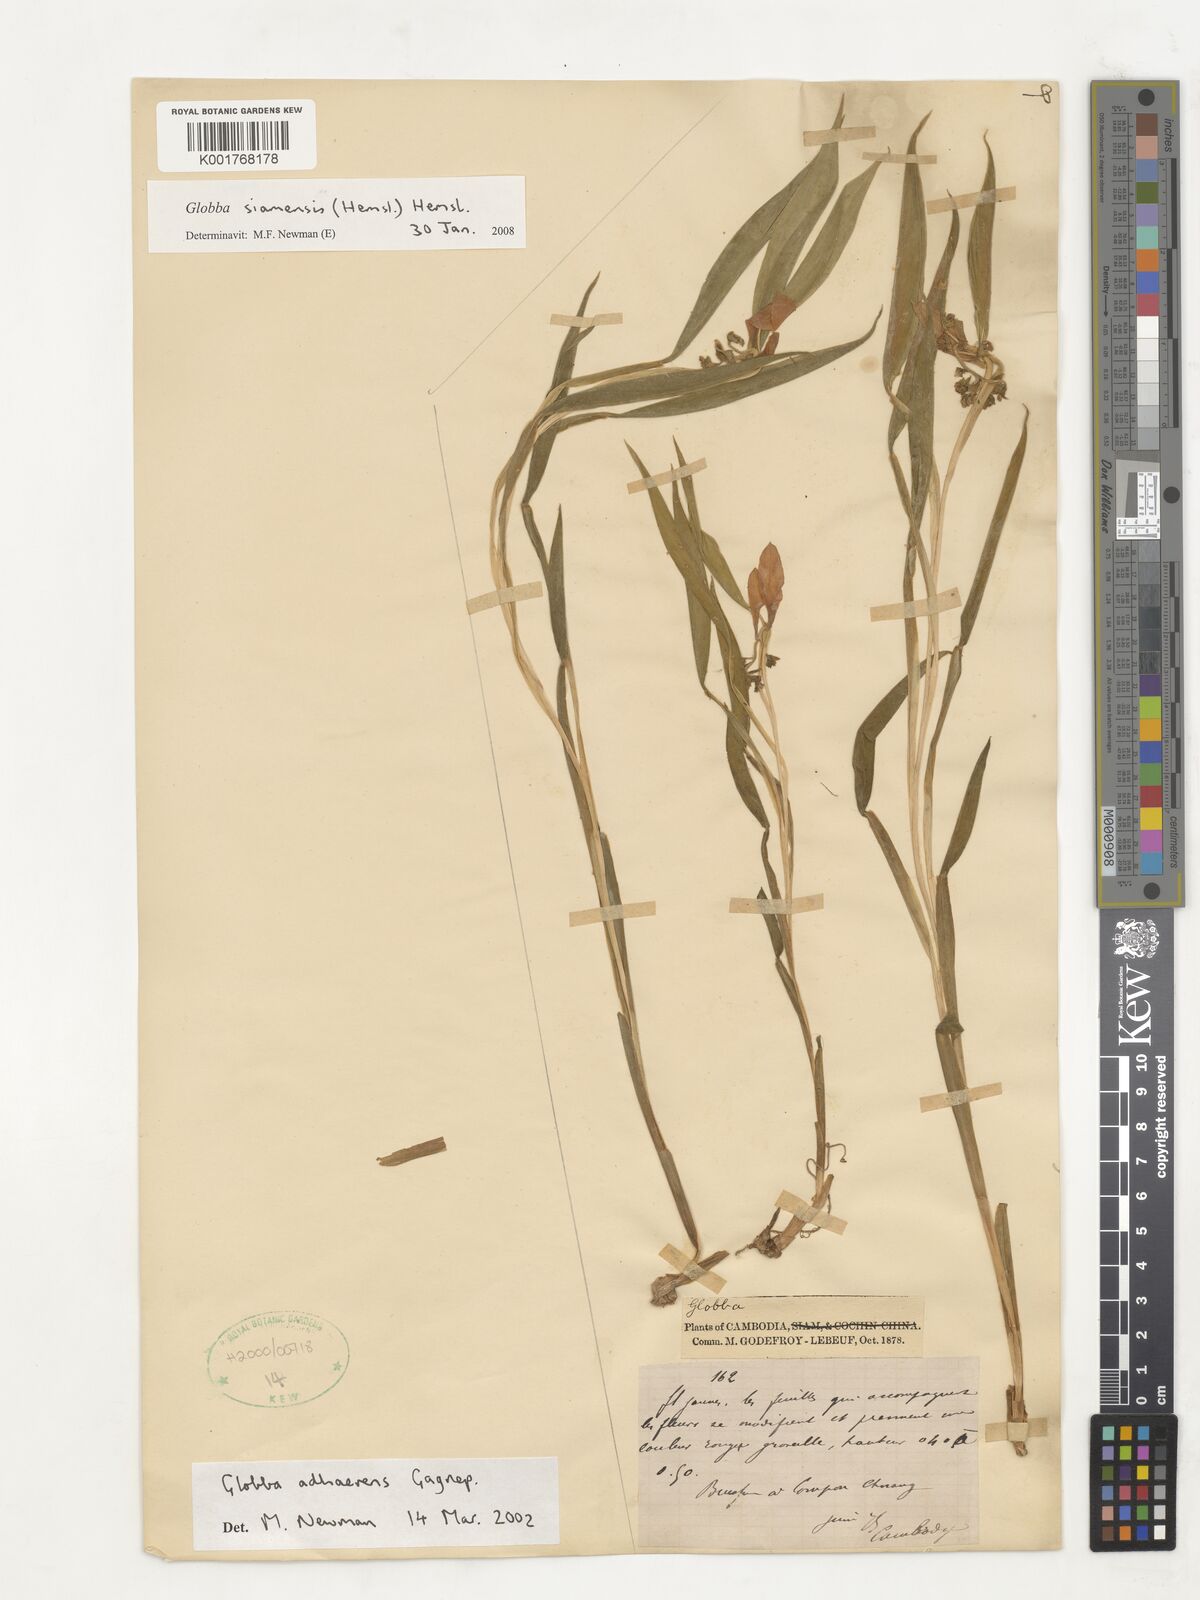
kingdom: Plantae
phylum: Tracheophyta
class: Liliopsida
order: Zingiberales
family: Zingiberaceae
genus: Globba
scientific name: Globba siamensis
